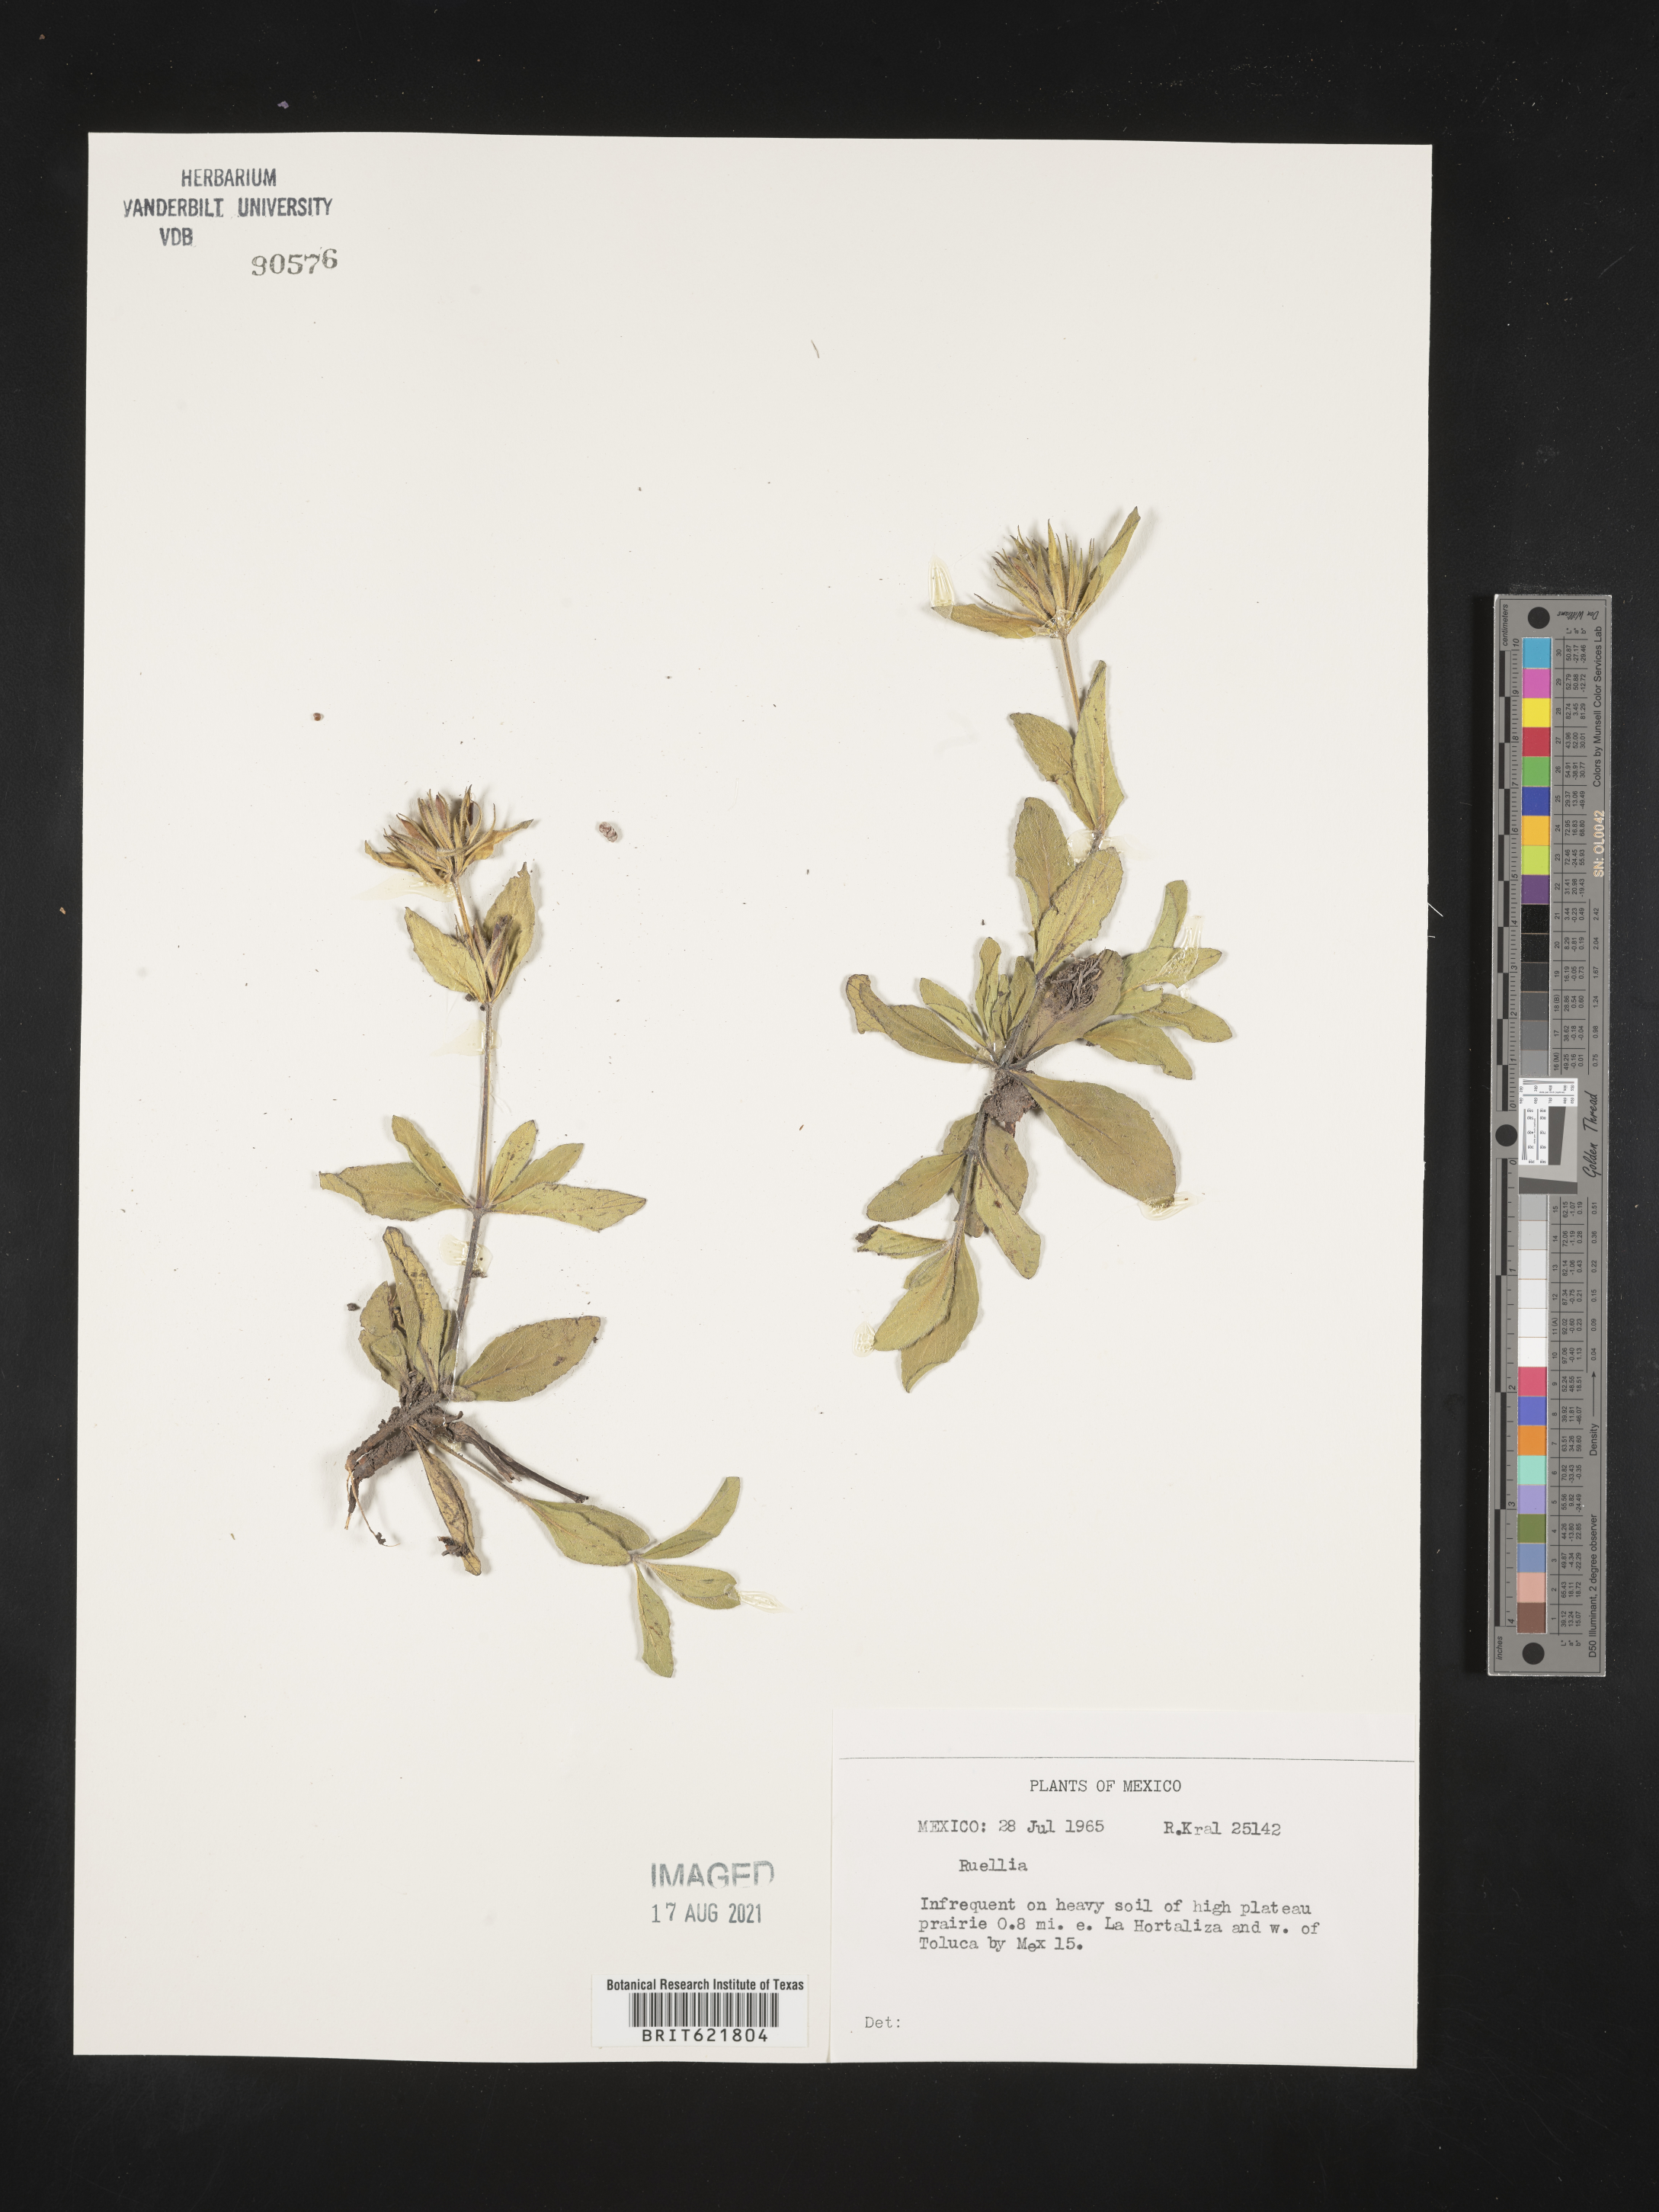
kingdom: Plantae
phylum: Tracheophyta
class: Magnoliopsida
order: Lamiales
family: Acanthaceae
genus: Ruellia
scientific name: Ruellia
